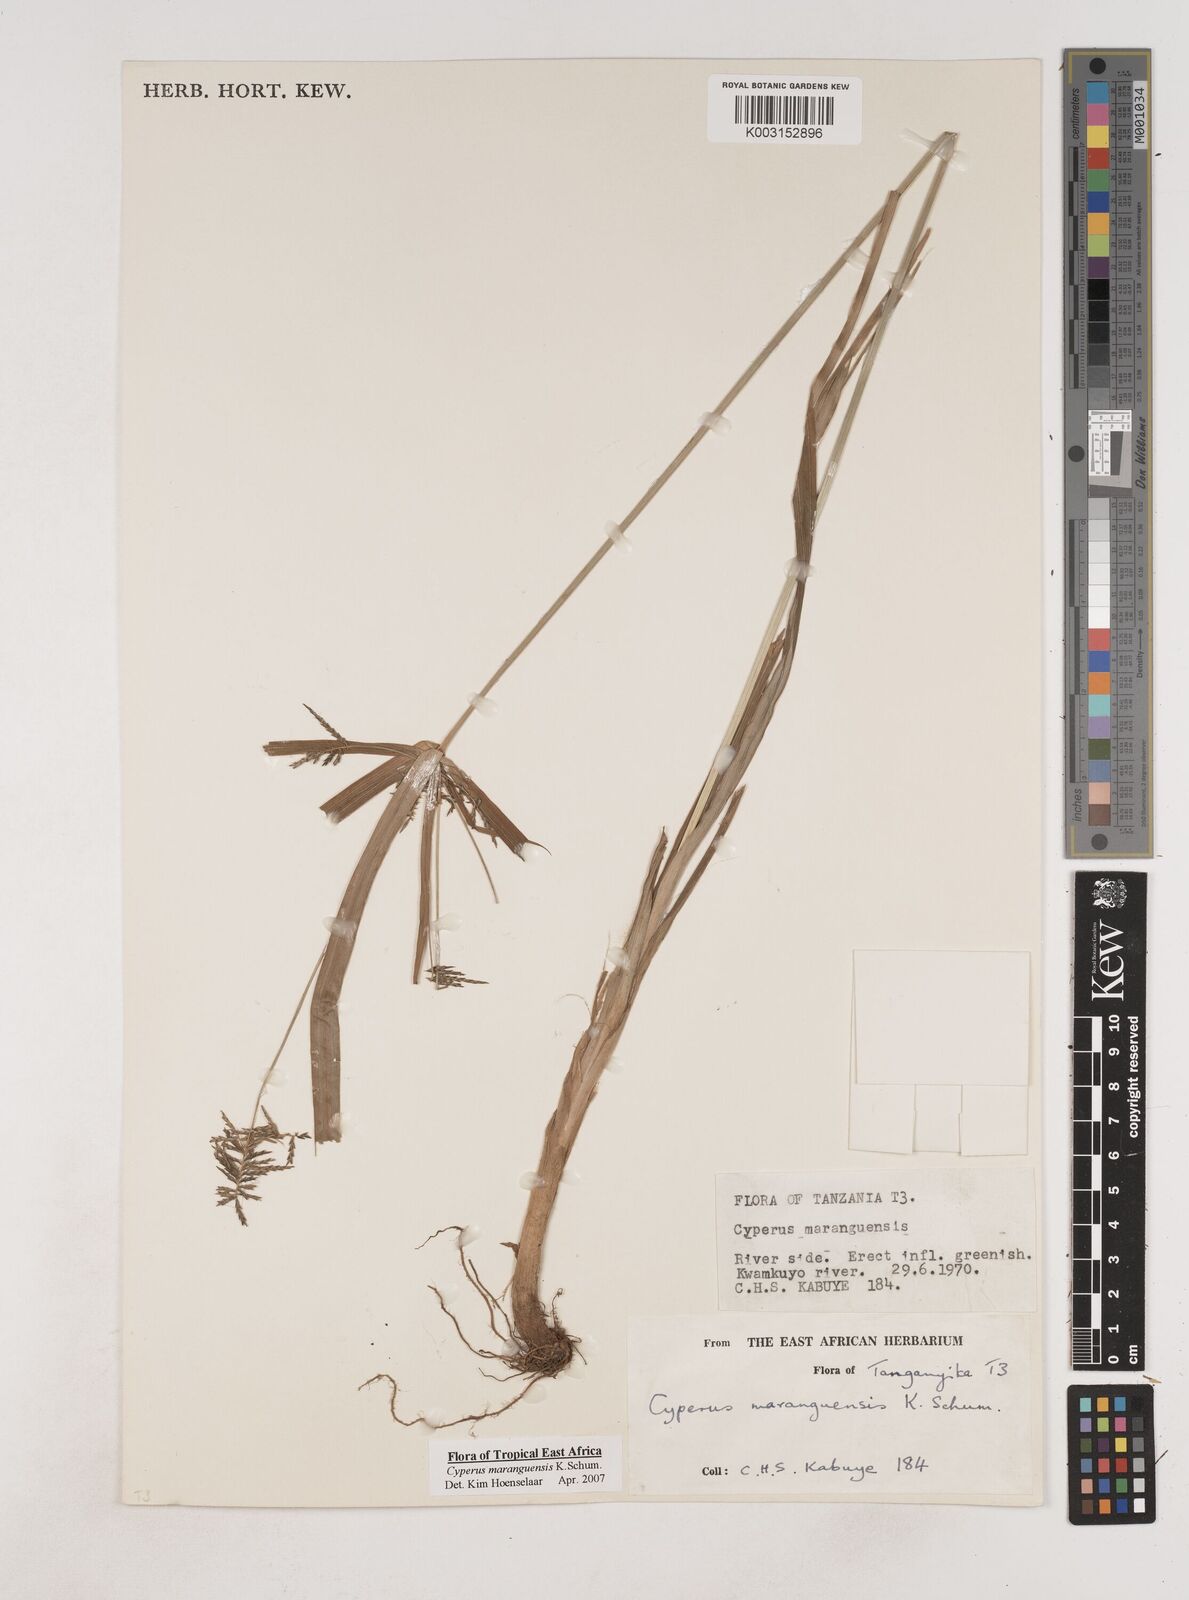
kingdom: Plantae
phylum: Tracheophyta
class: Liliopsida
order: Poales
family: Cyperaceae
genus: Cyperus
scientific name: Cyperus maranguensis
